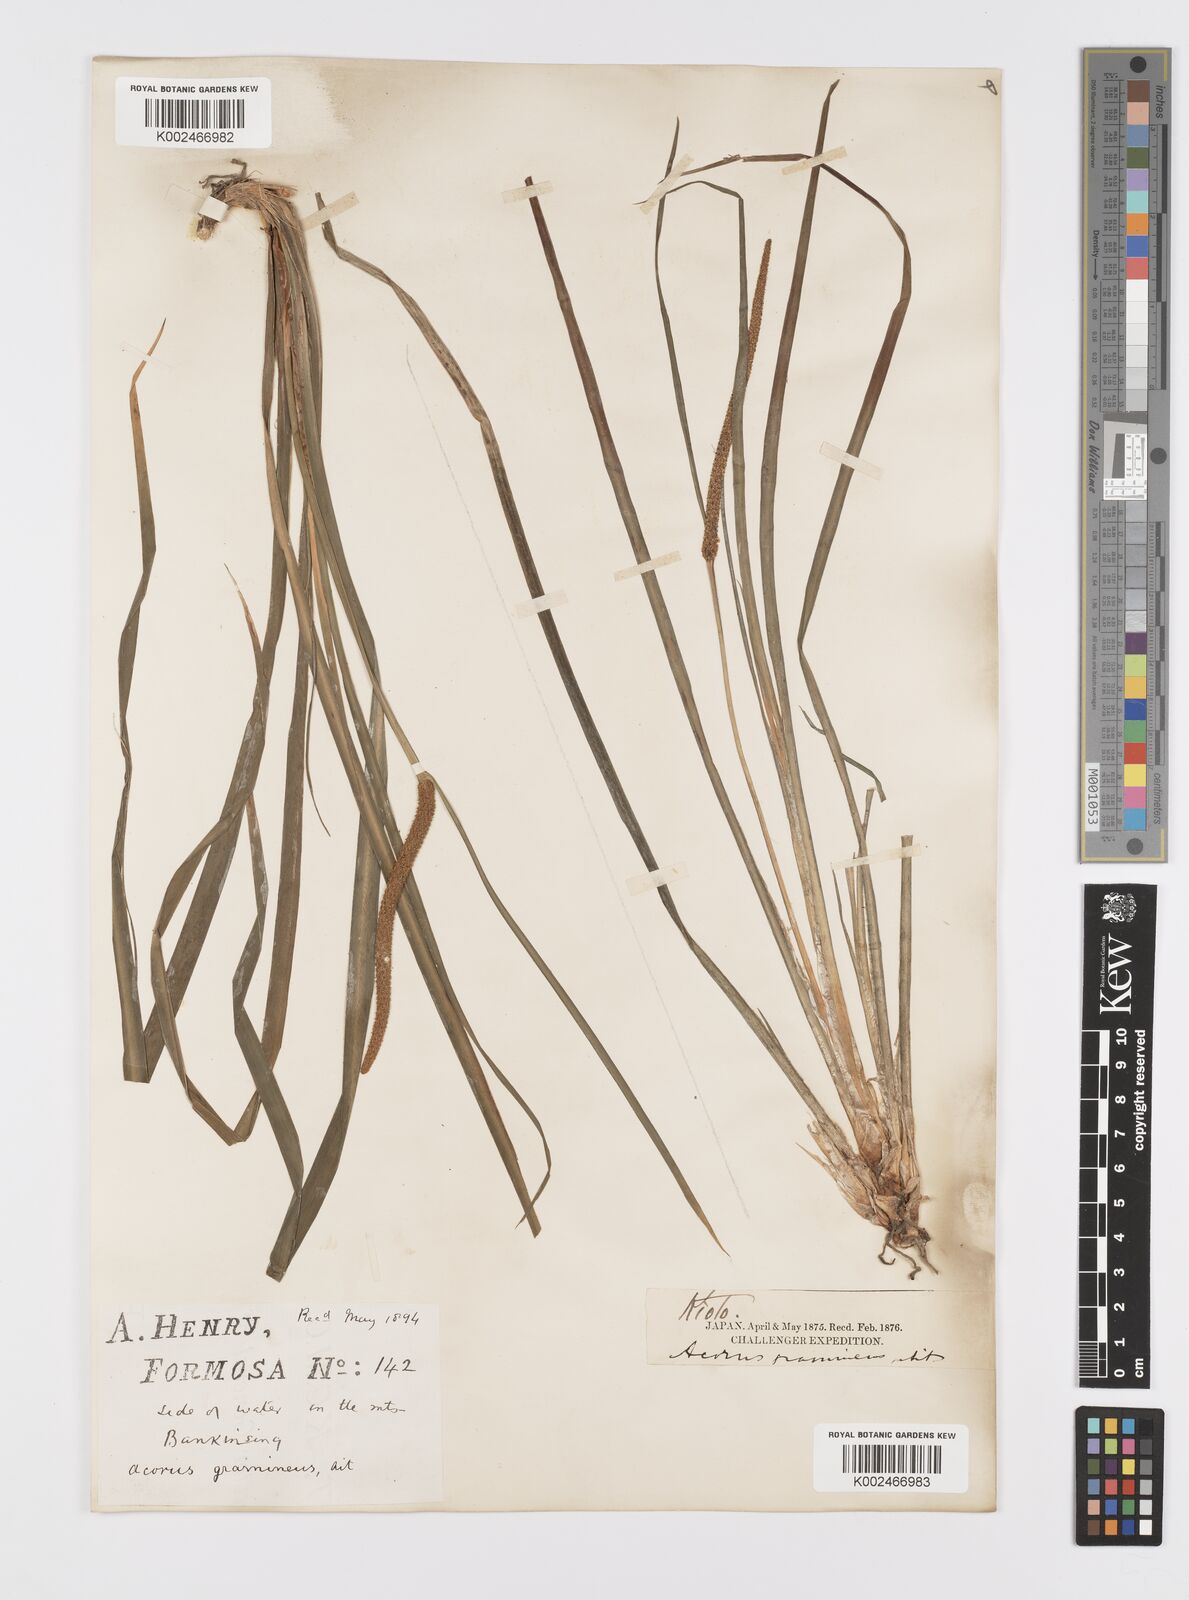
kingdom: Plantae
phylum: Tracheophyta
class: Liliopsida
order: Acorales
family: Acoraceae
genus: Acorus
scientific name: Acorus gramineus
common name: Slender sweet-flag
